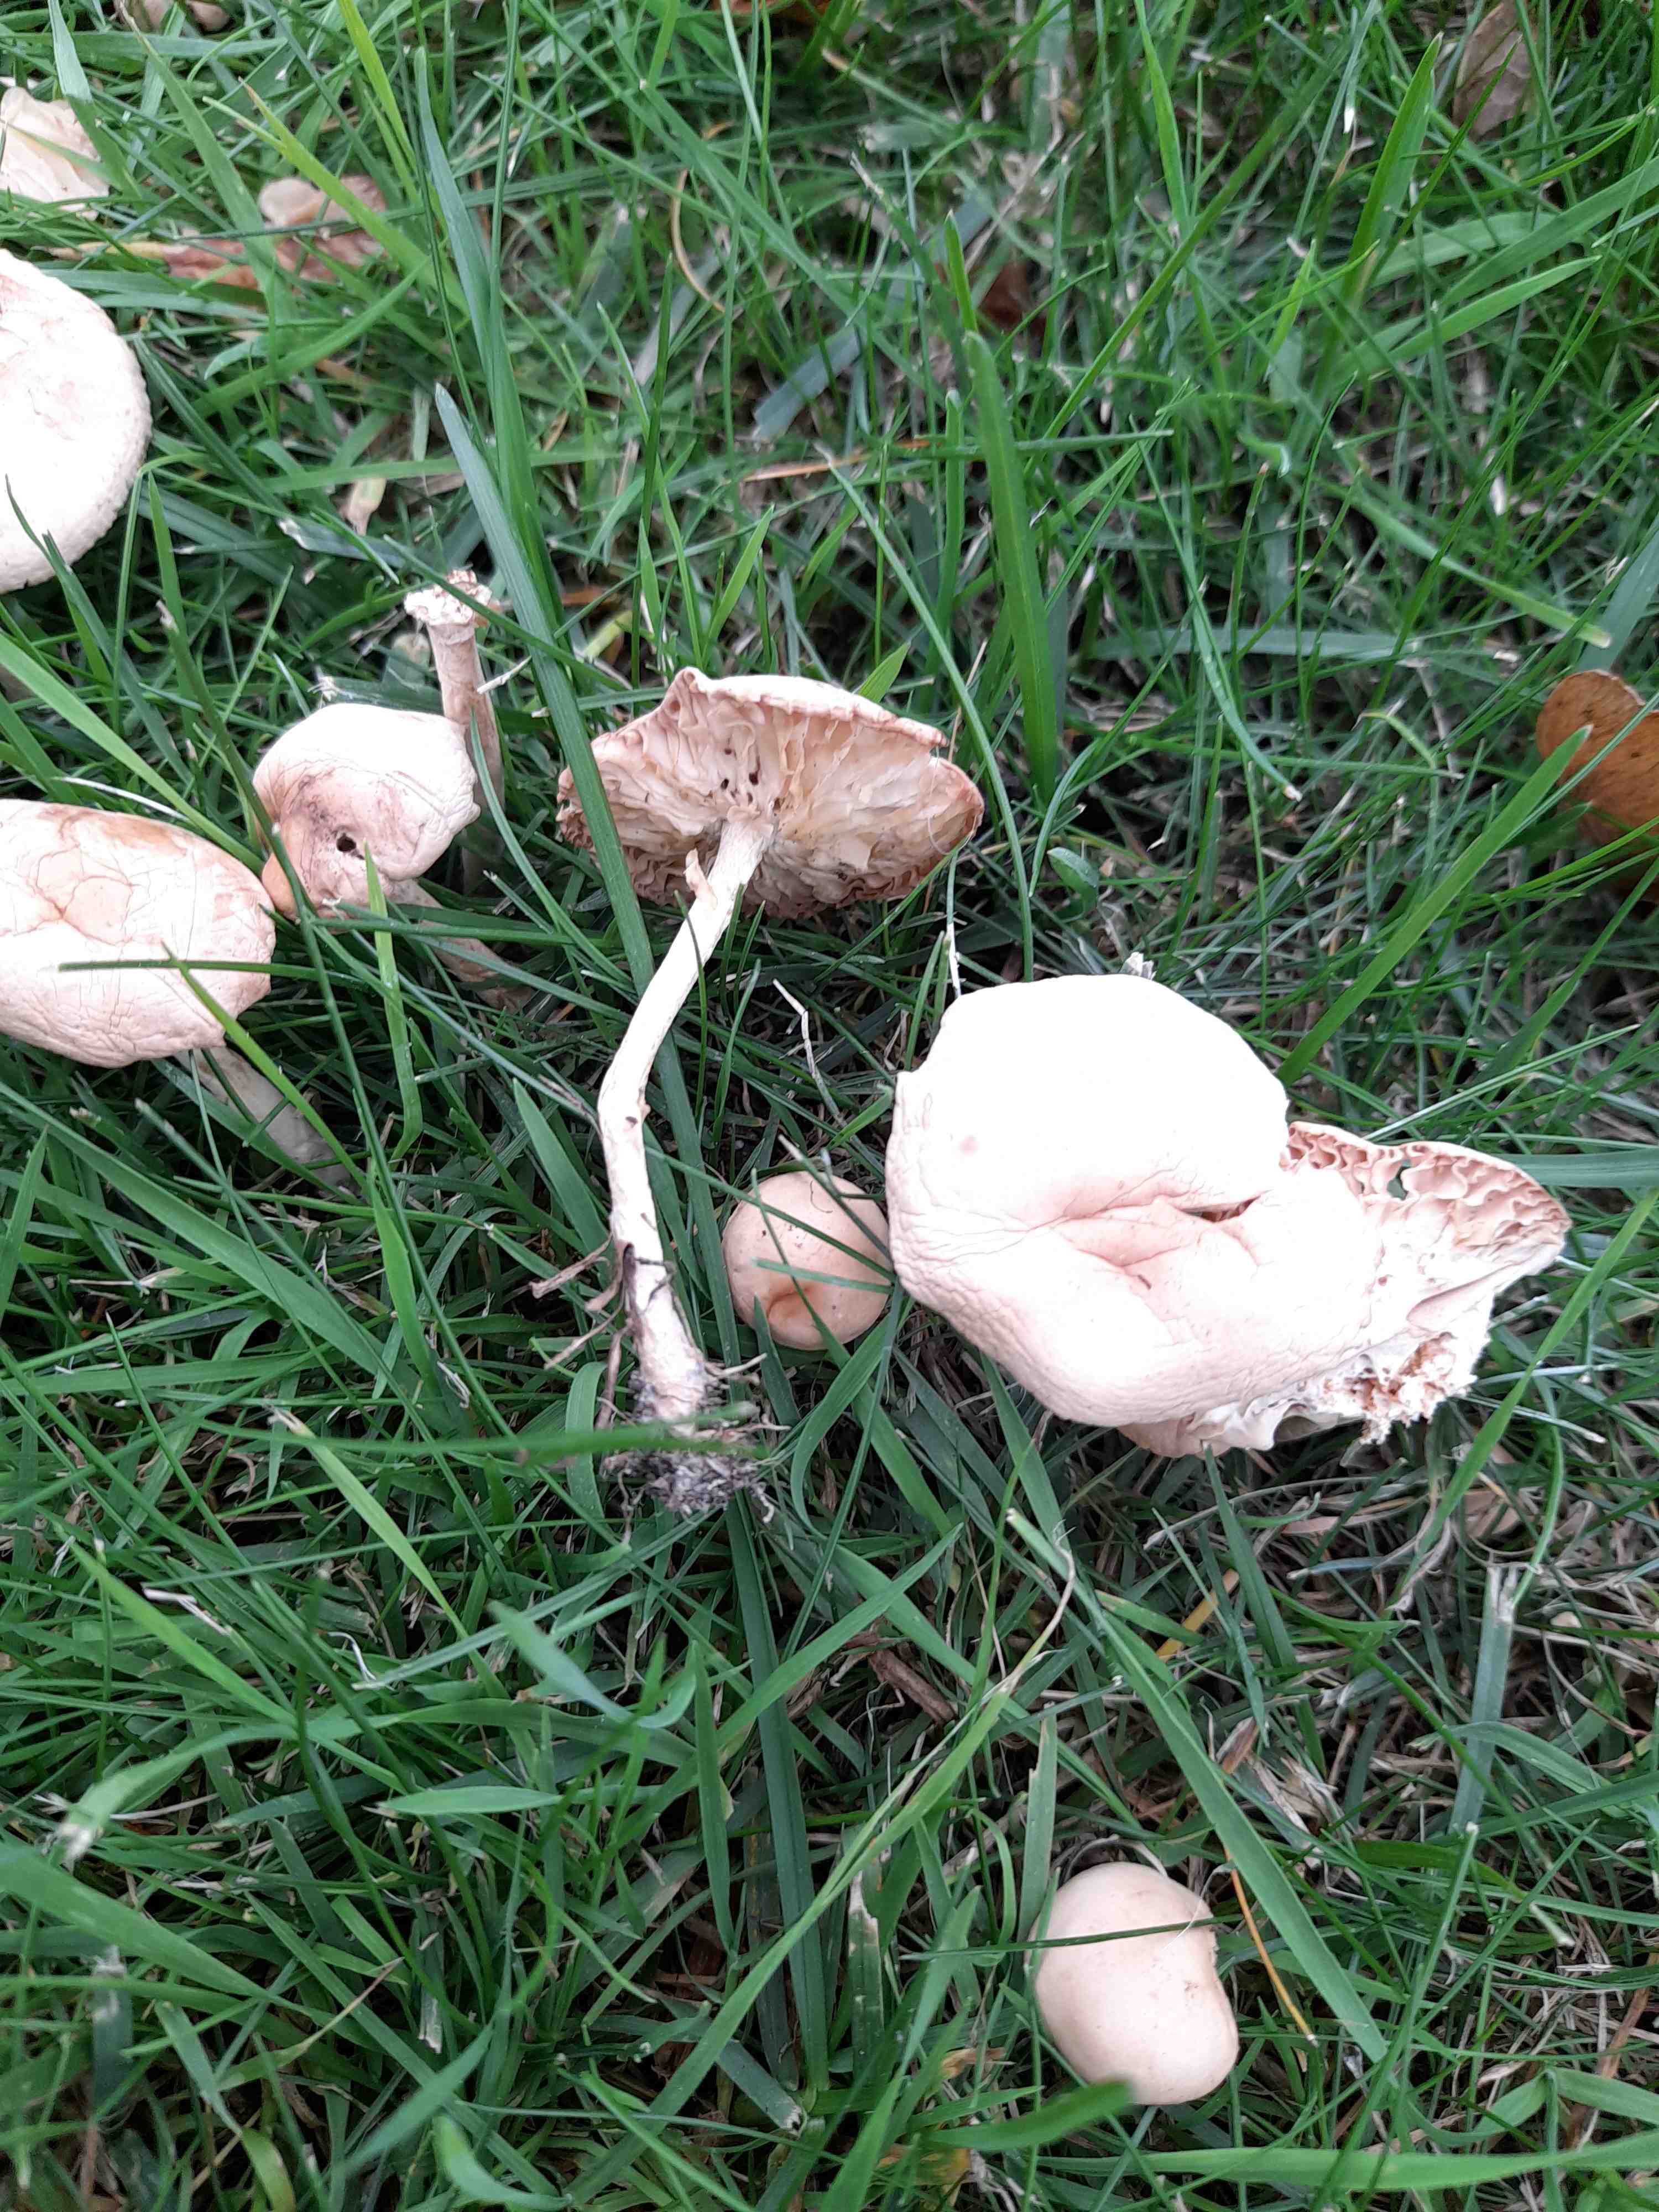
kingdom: Fungi
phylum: Basidiomycota
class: Agaricomycetes
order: Agaricales
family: Marasmiaceae
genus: Marasmius
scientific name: Marasmius oreades
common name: elledans-bruskhat
